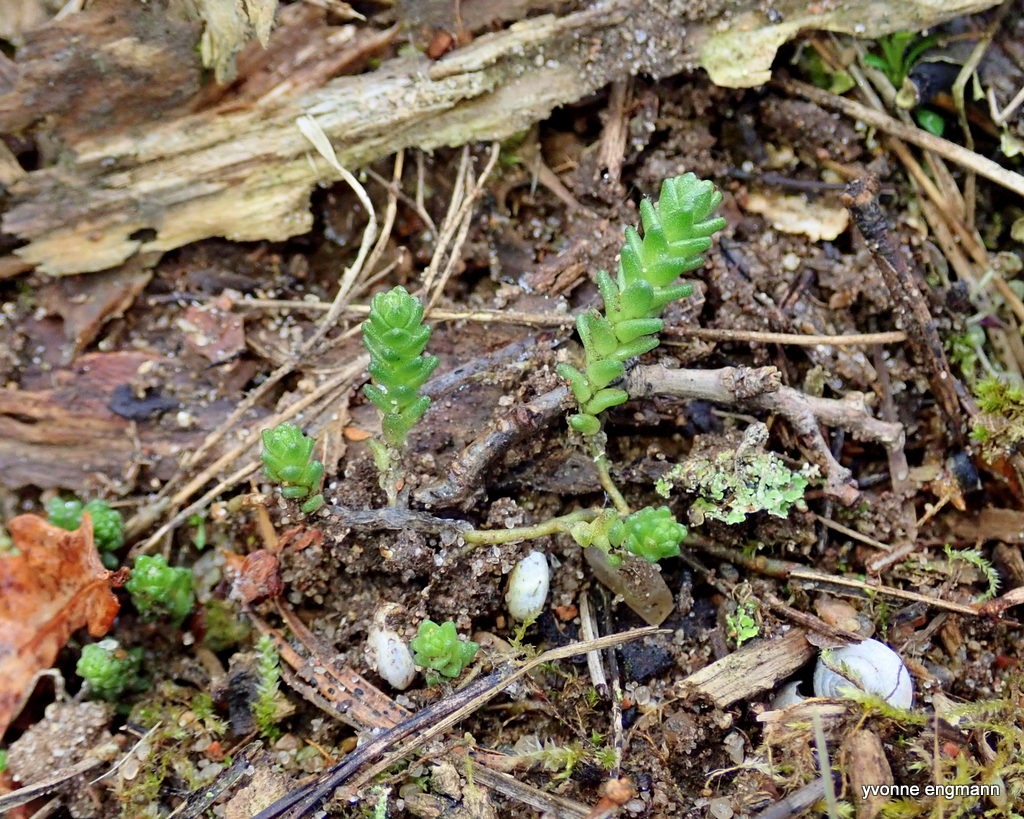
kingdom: Plantae
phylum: Tracheophyta
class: Magnoliopsida
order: Saxifragales
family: Crassulaceae
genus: Sedum
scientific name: Sedum acre
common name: Bidende stenurt
